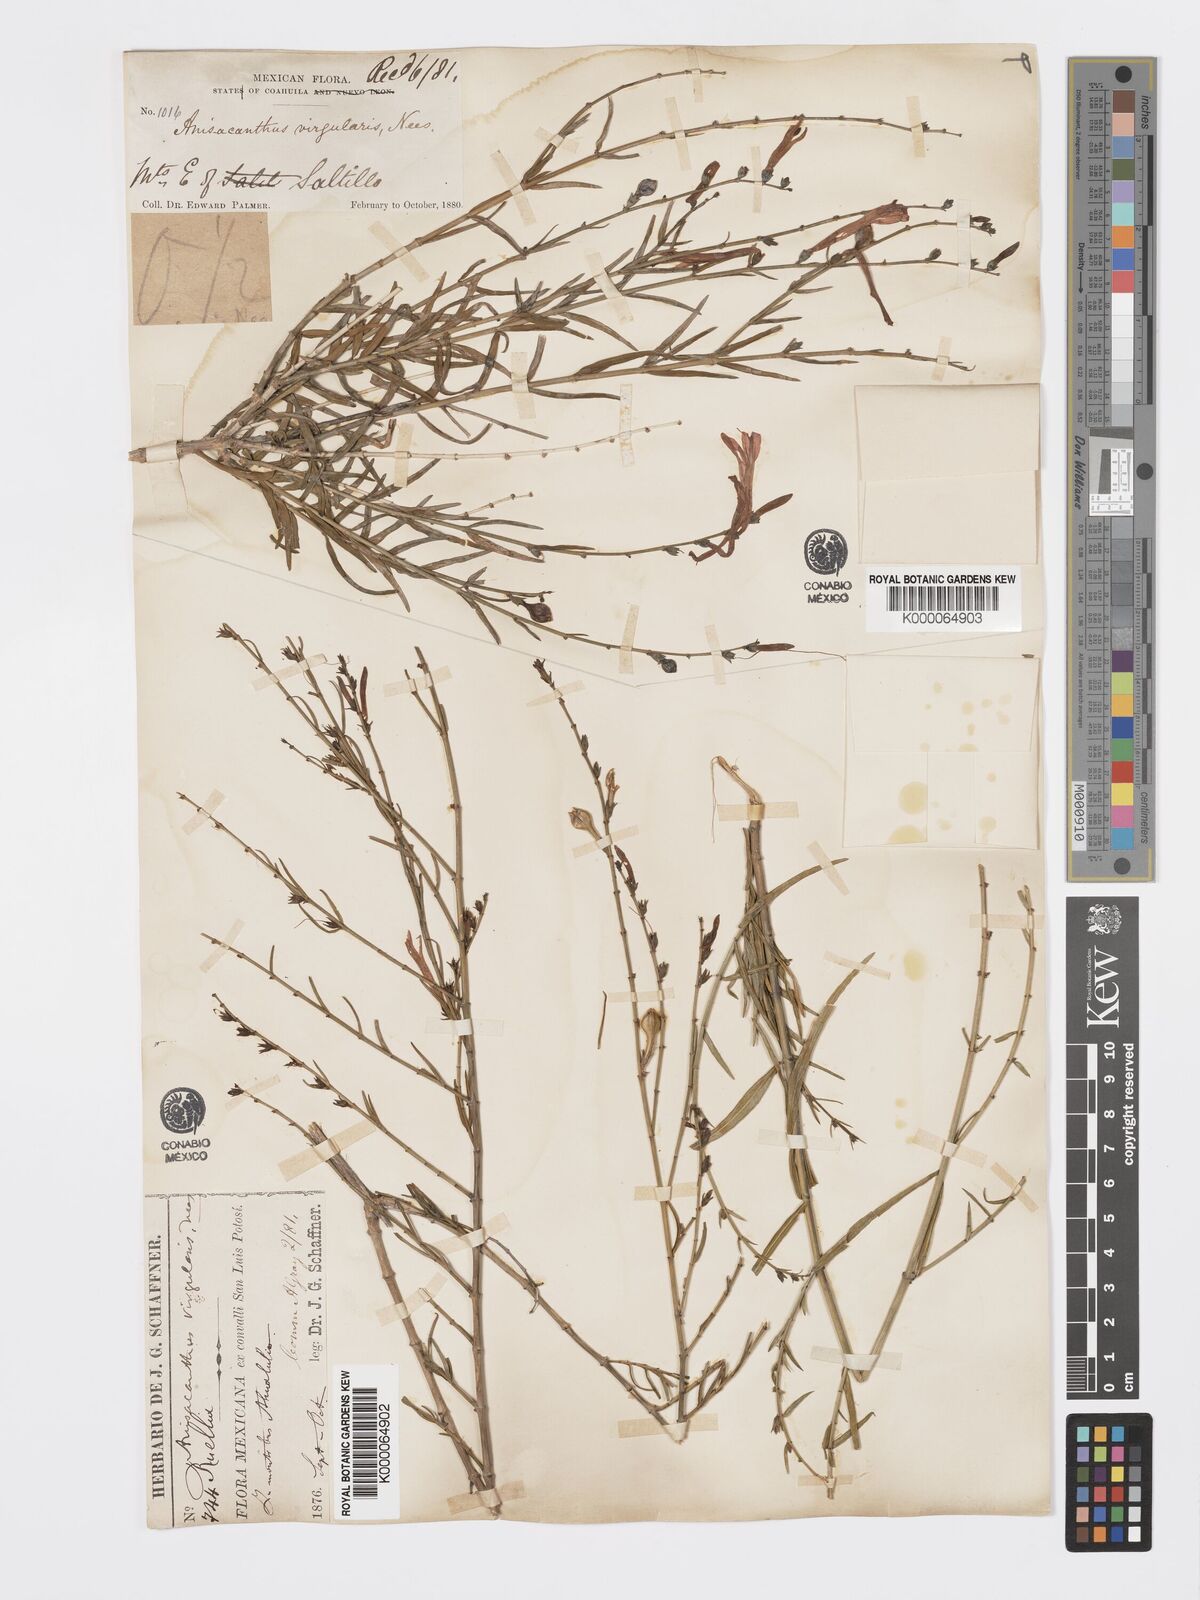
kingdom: Plantae
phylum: Tracheophyta
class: Magnoliopsida
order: Lamiales
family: Acanthaceae
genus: Anisacanthus
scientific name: Anisacanthus quadrifidus
